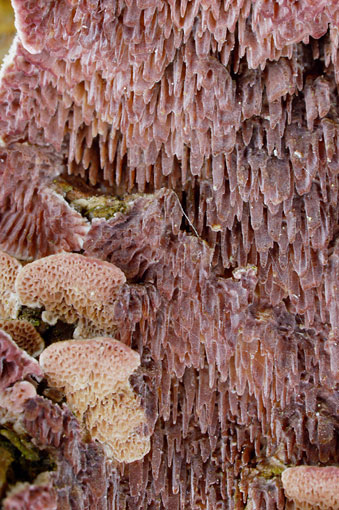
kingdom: Fungi
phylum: Basidiomycota
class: Agaricomycetes
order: Hymenochaetales
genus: Trichaptum
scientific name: Trichaptum fuscoviolaceum
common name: tandet violporesvamp
